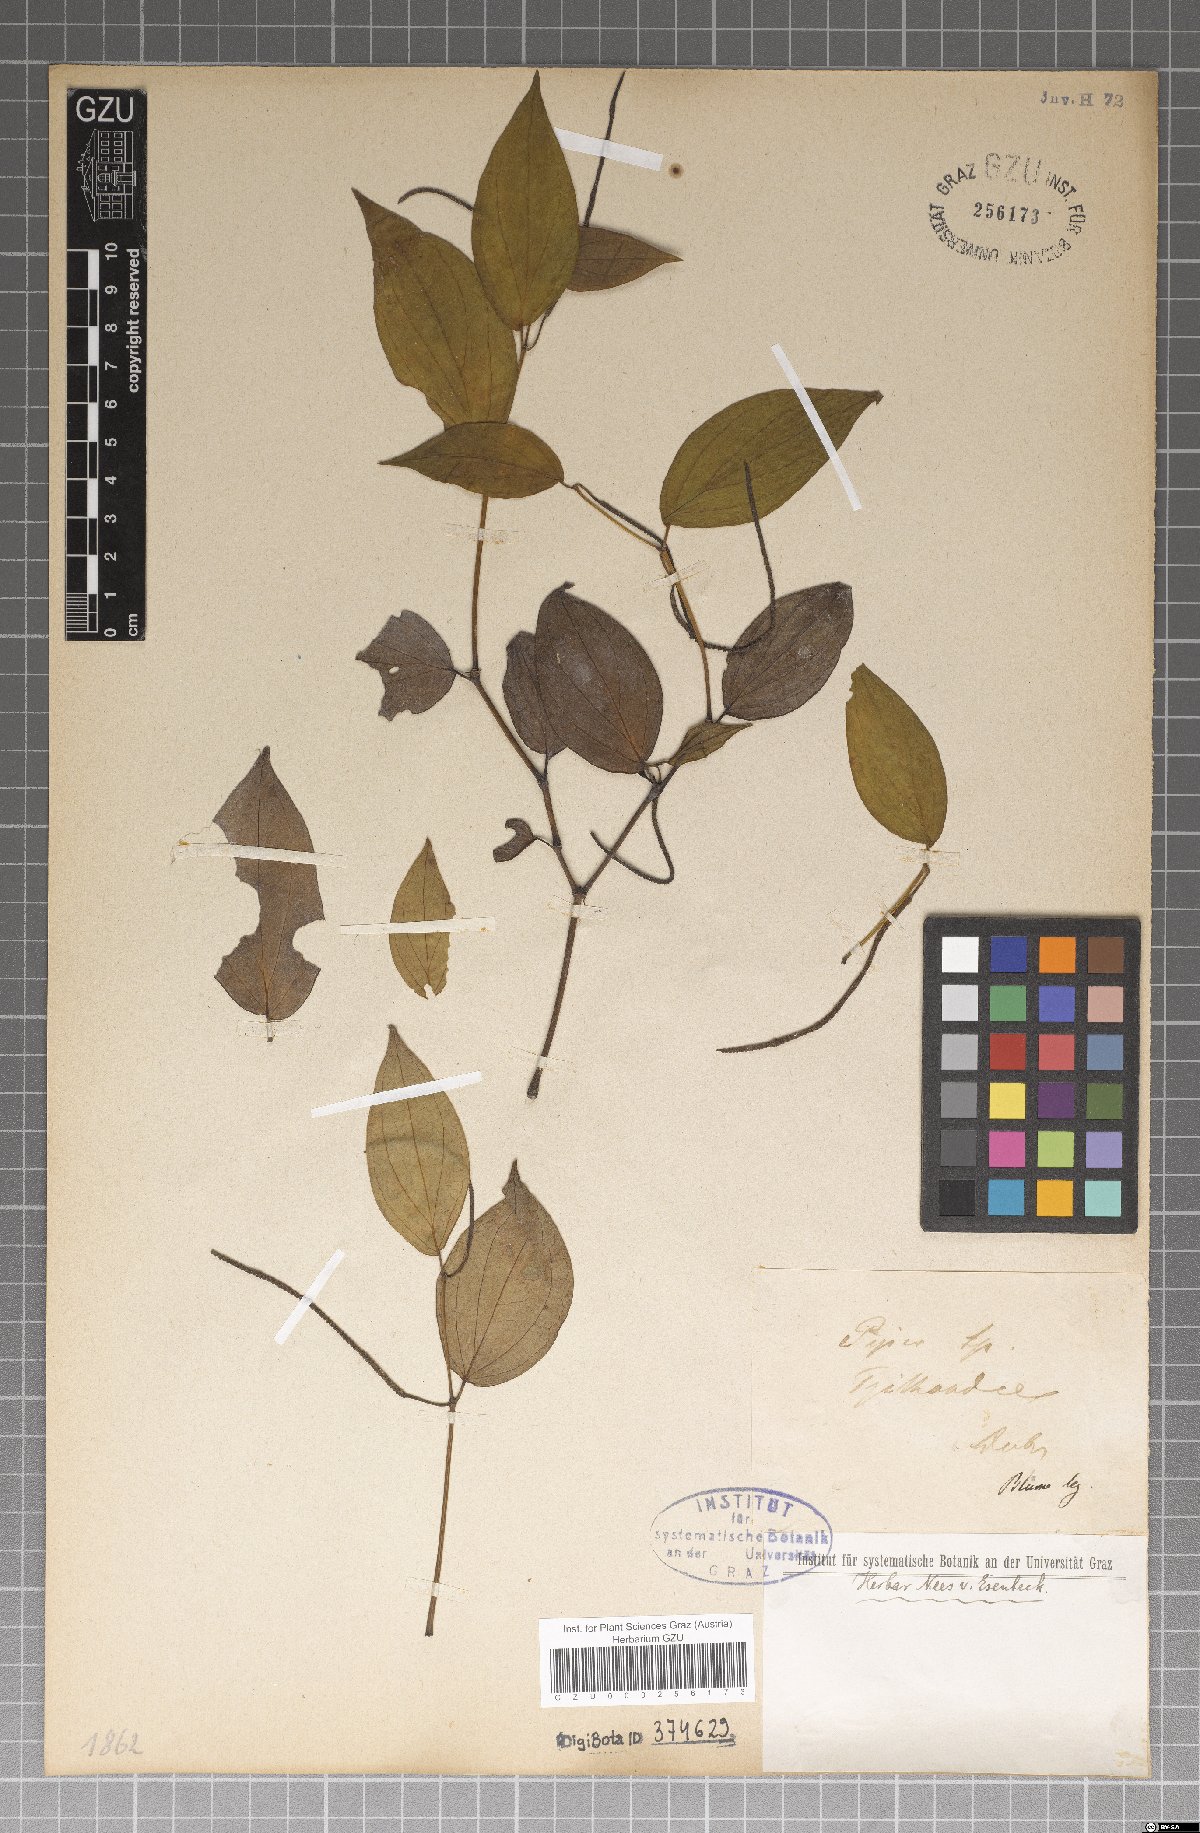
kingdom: Plantae
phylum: Tracheophyta
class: Magnoliopsida
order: Piperales
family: Piperaceae
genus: Piper
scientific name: Piper
